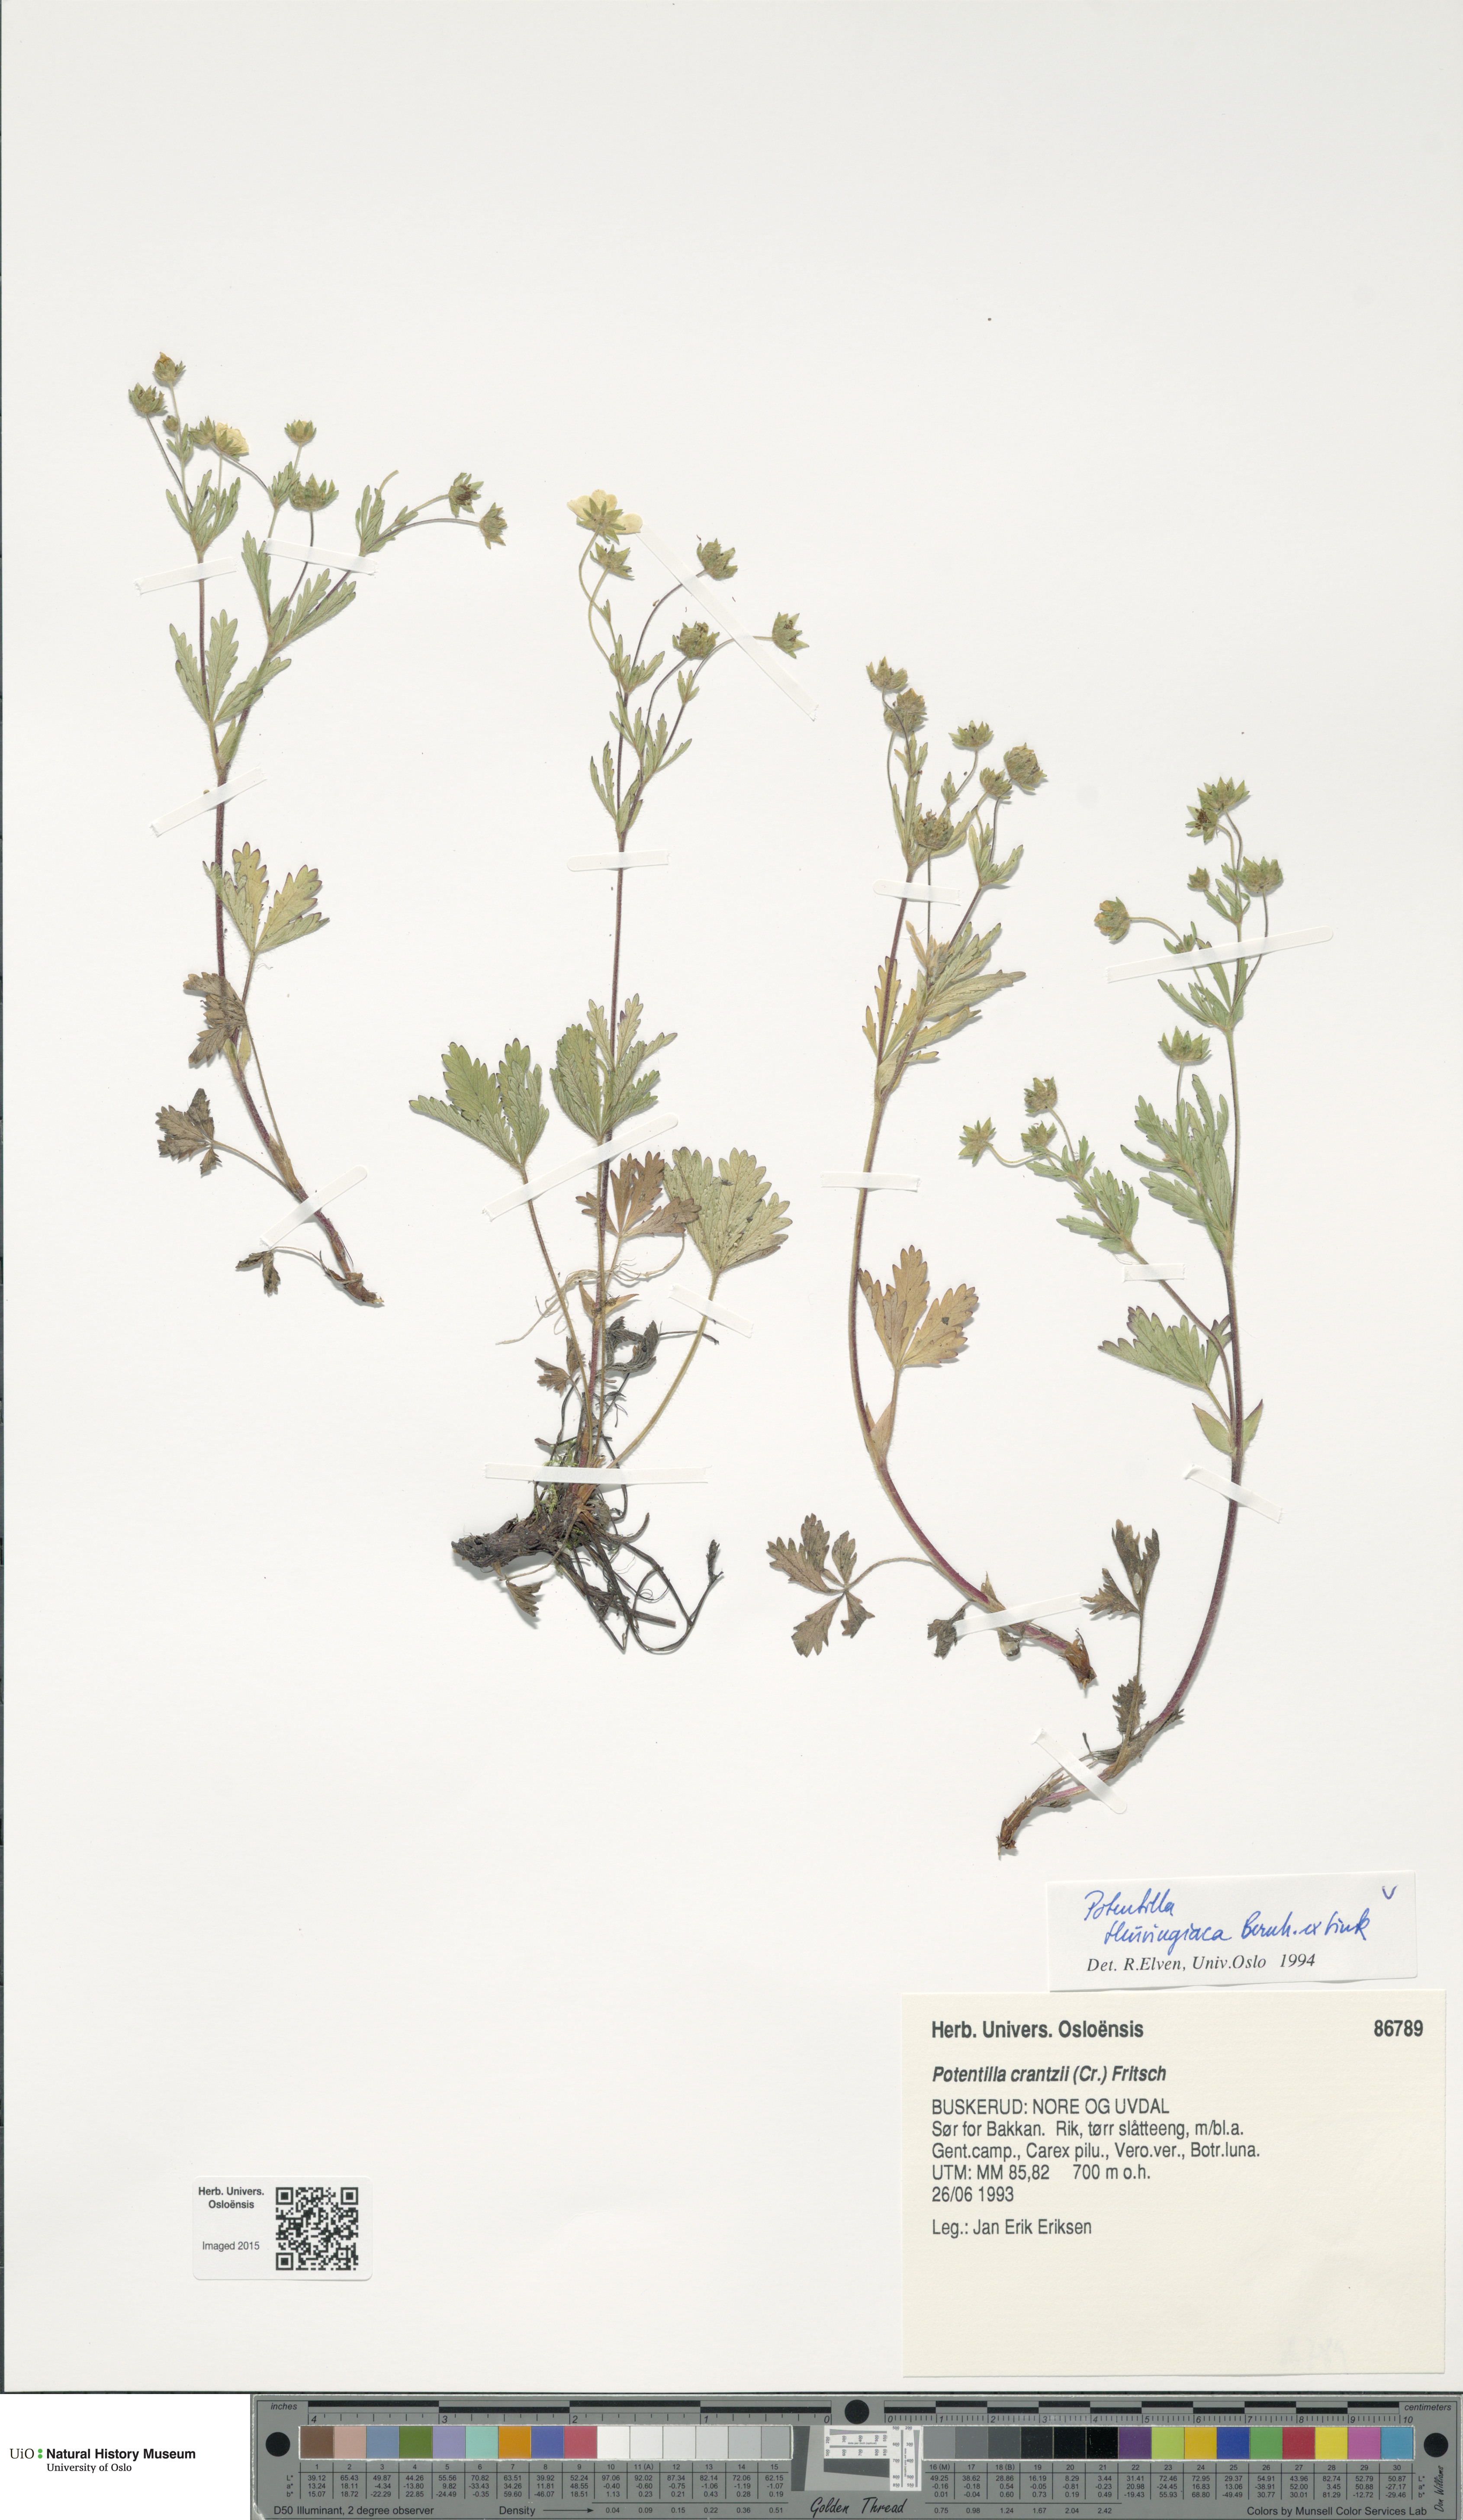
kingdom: Plantae
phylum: Tracheophyta
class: Magnoliopsida
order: Rosales
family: Rosaceae
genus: Potentilla
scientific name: Potentilla thuringiaca
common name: European cinquefoil
